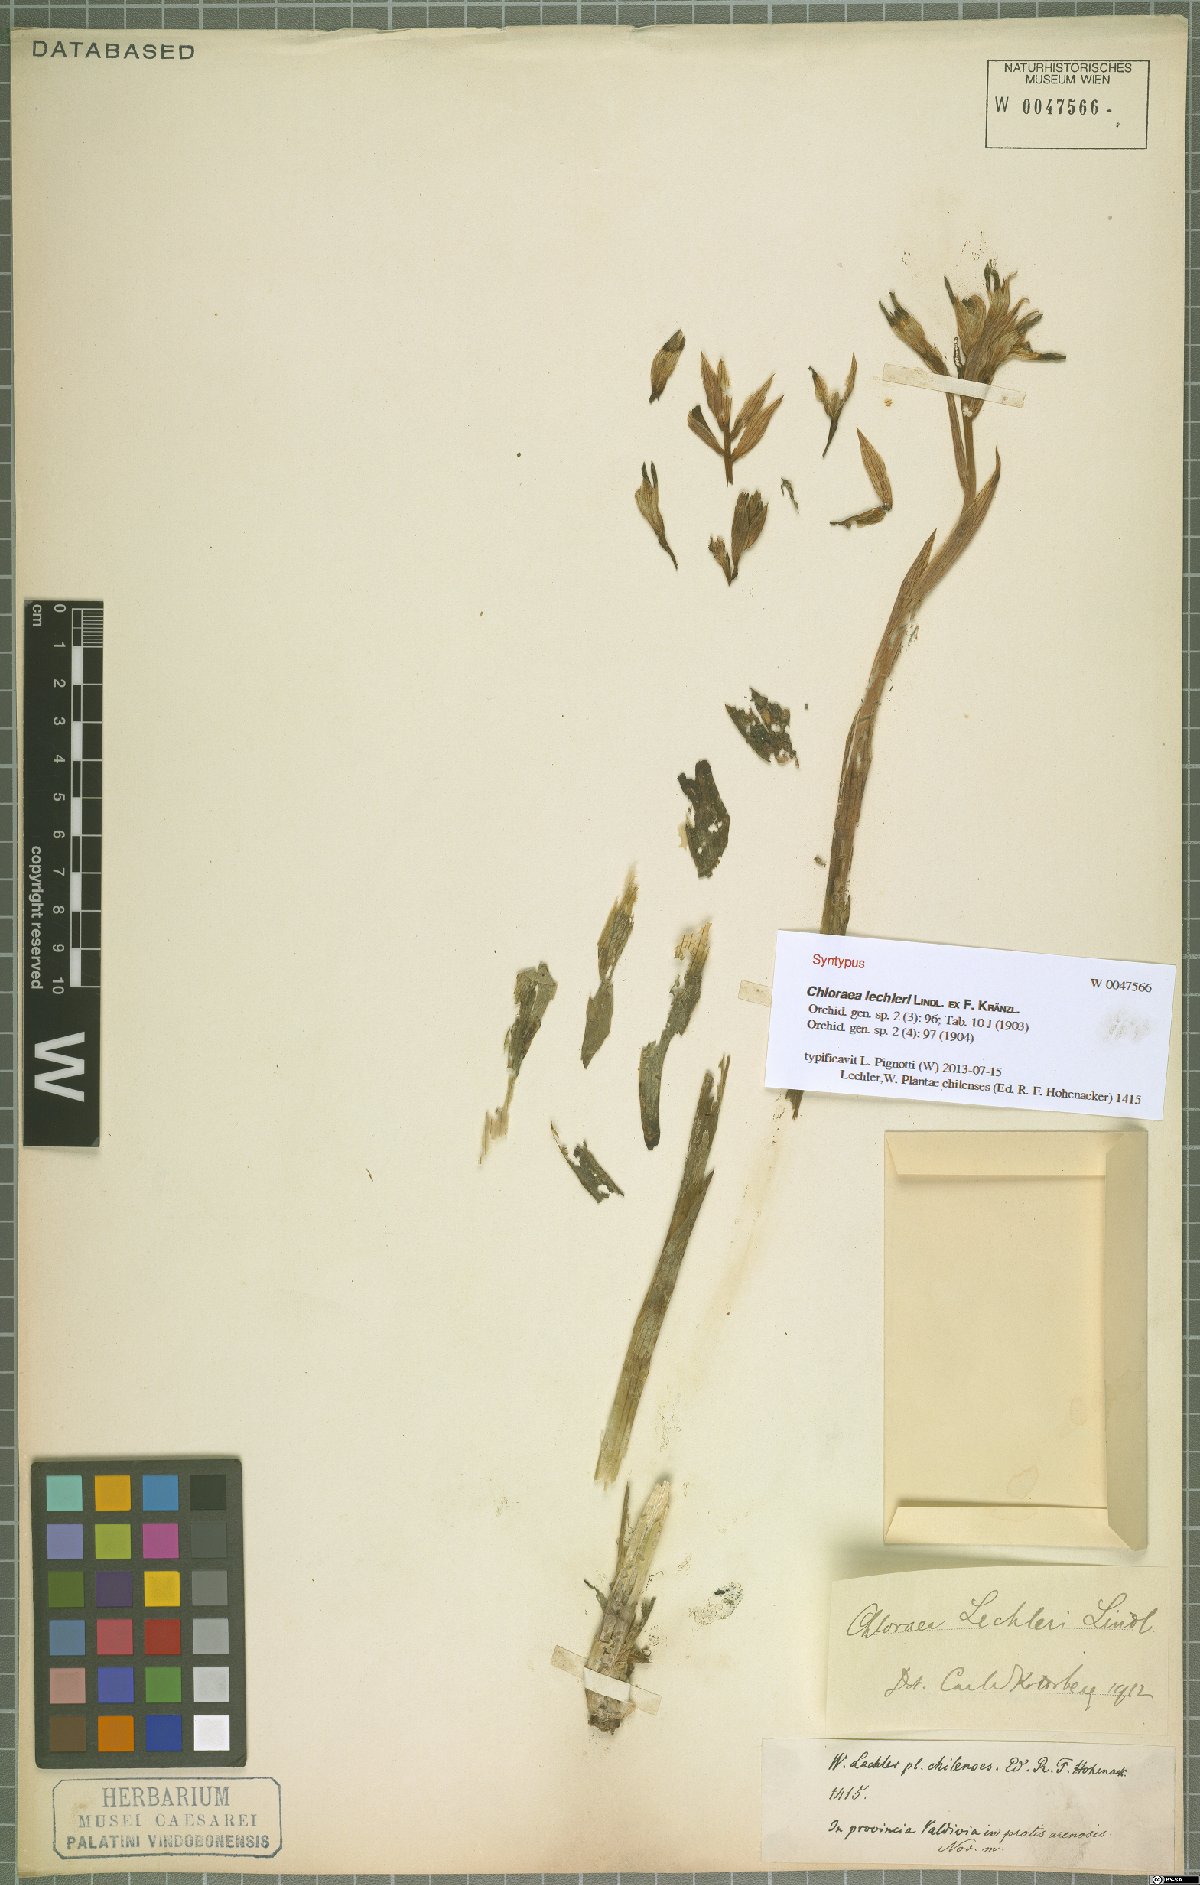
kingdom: Plantae
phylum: Tracheophyta
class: Liliopsida
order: Asparagales
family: Orchidaceae
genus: Chloraea
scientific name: Chloraea lechleri
